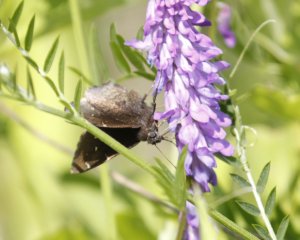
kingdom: Animalia
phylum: Arthropoda
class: Insecta
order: Lepidoptera
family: Hesperiidae
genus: Autochton
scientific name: Autochton
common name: Northern Cloudywing
